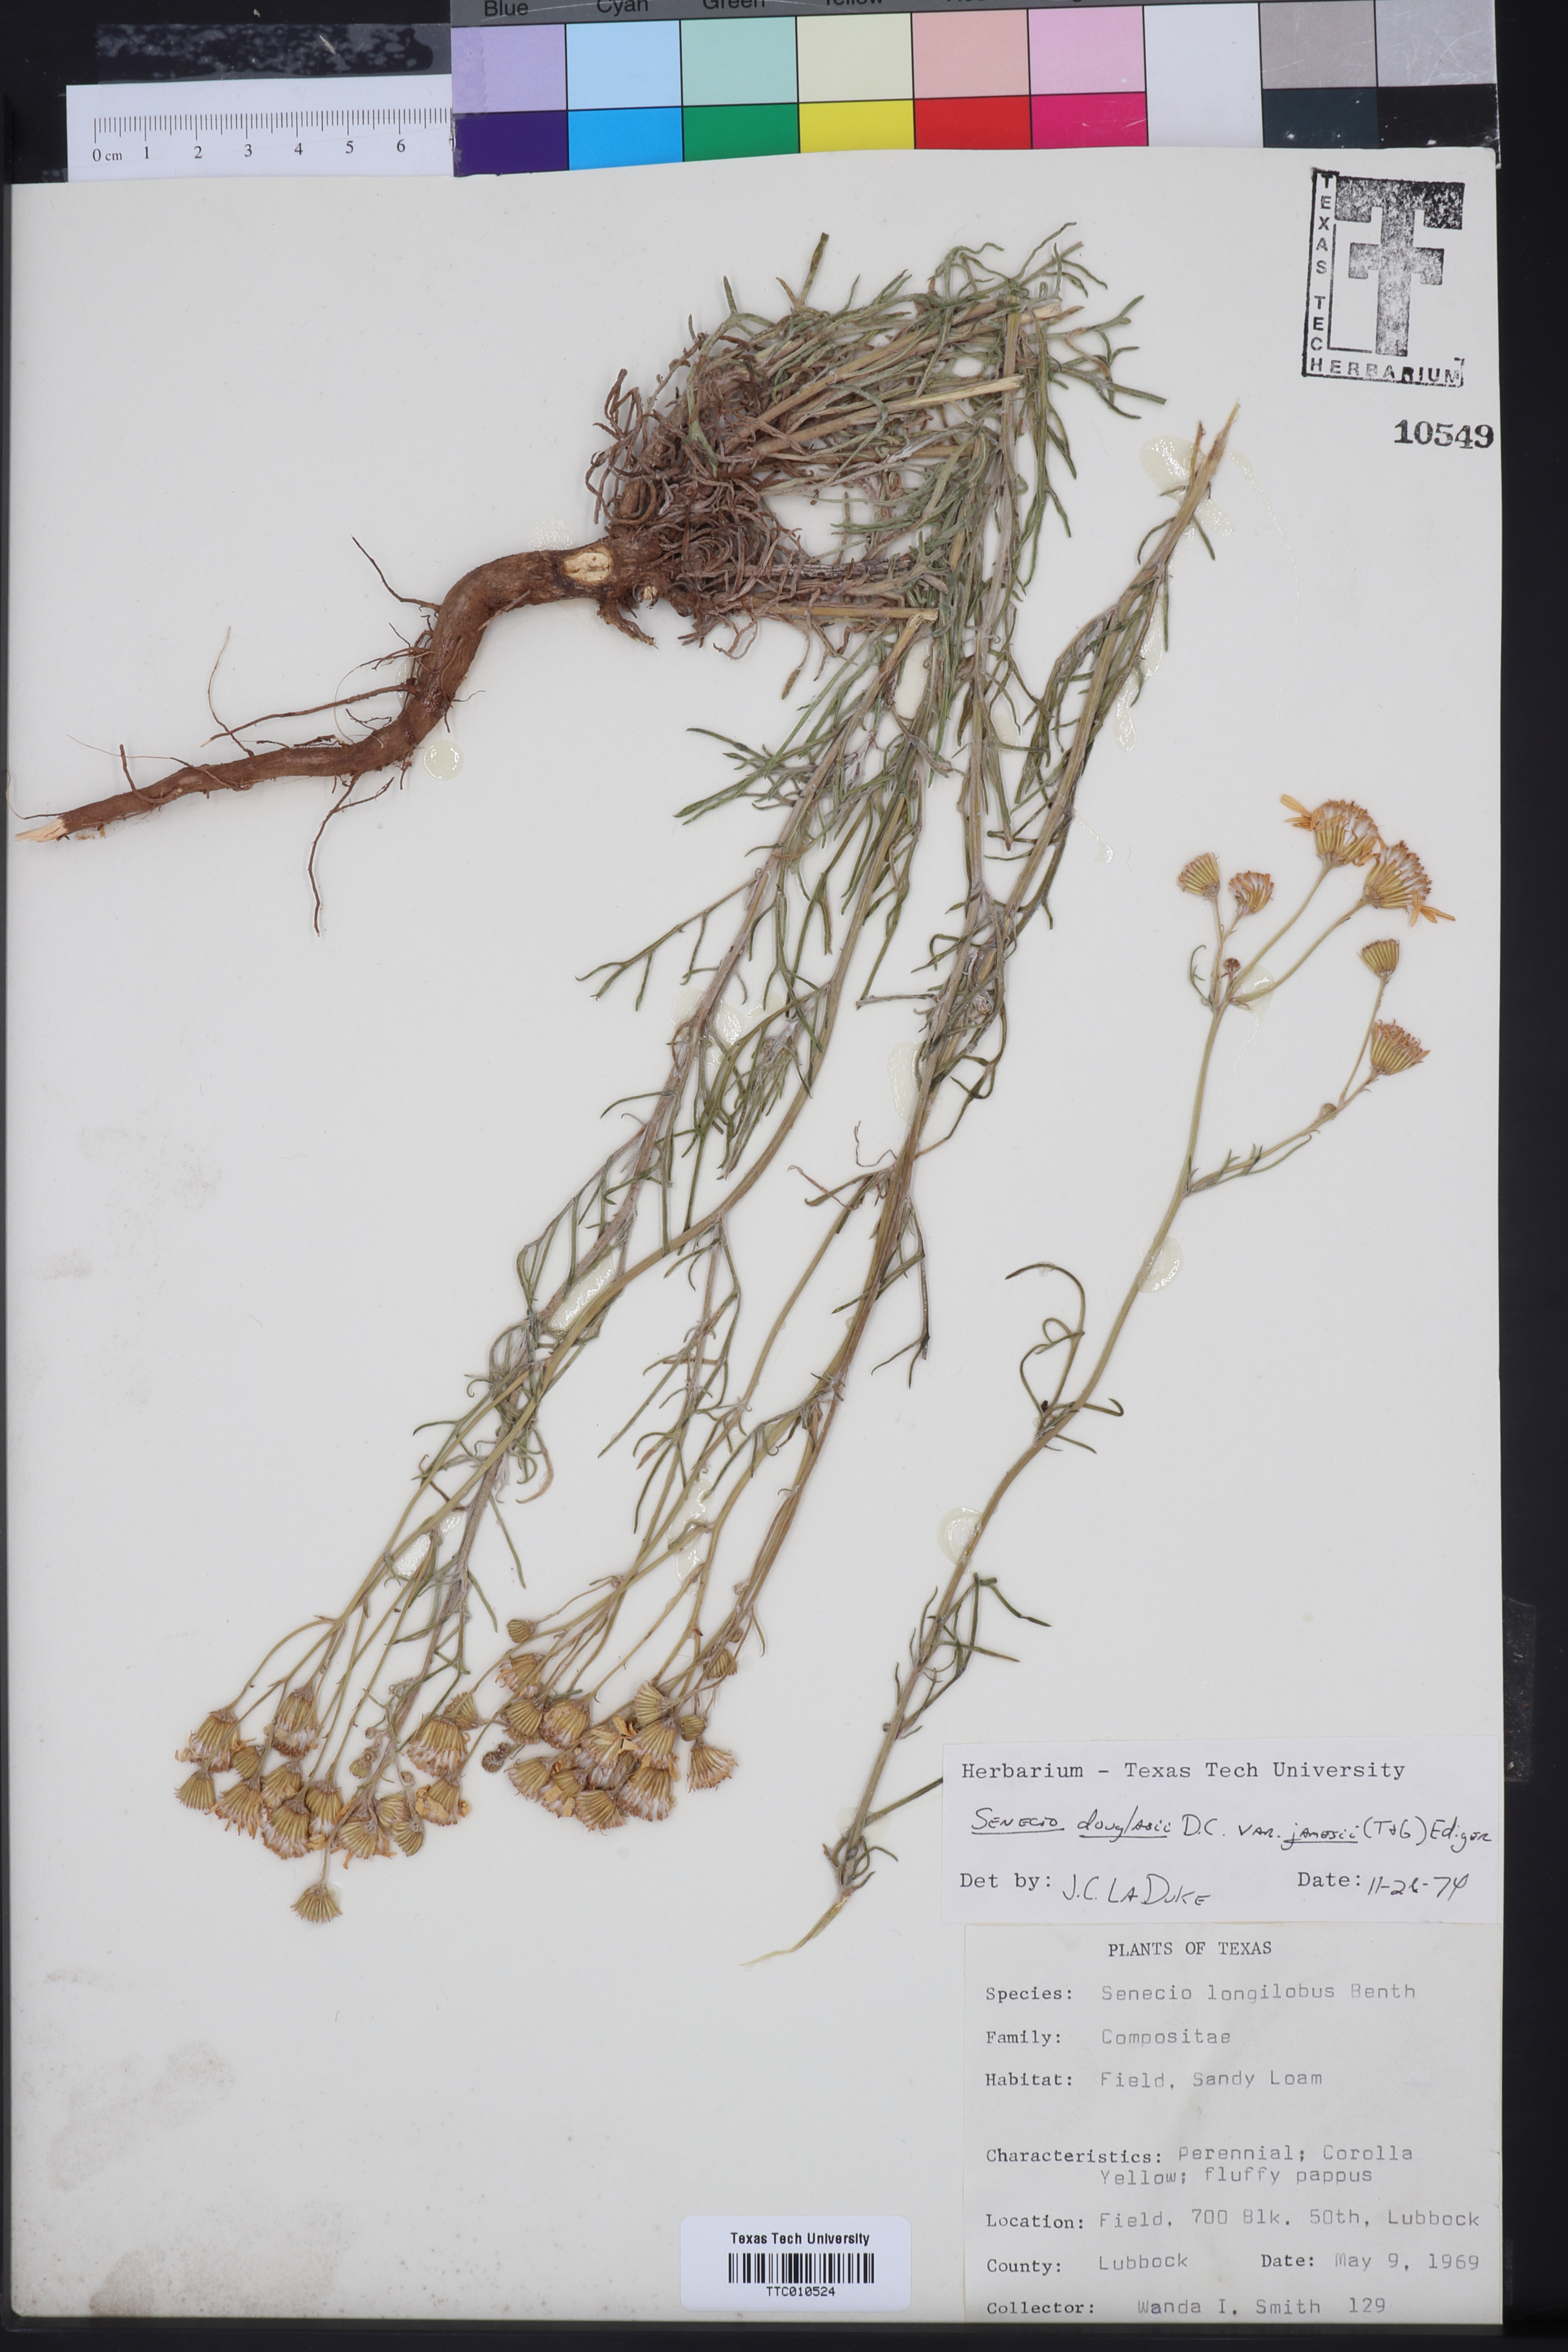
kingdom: Plantae
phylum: Tracheophyta
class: Magnoliopsida
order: Asterales
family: Asteraceae
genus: Senecio
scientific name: Senecio flaccidus
